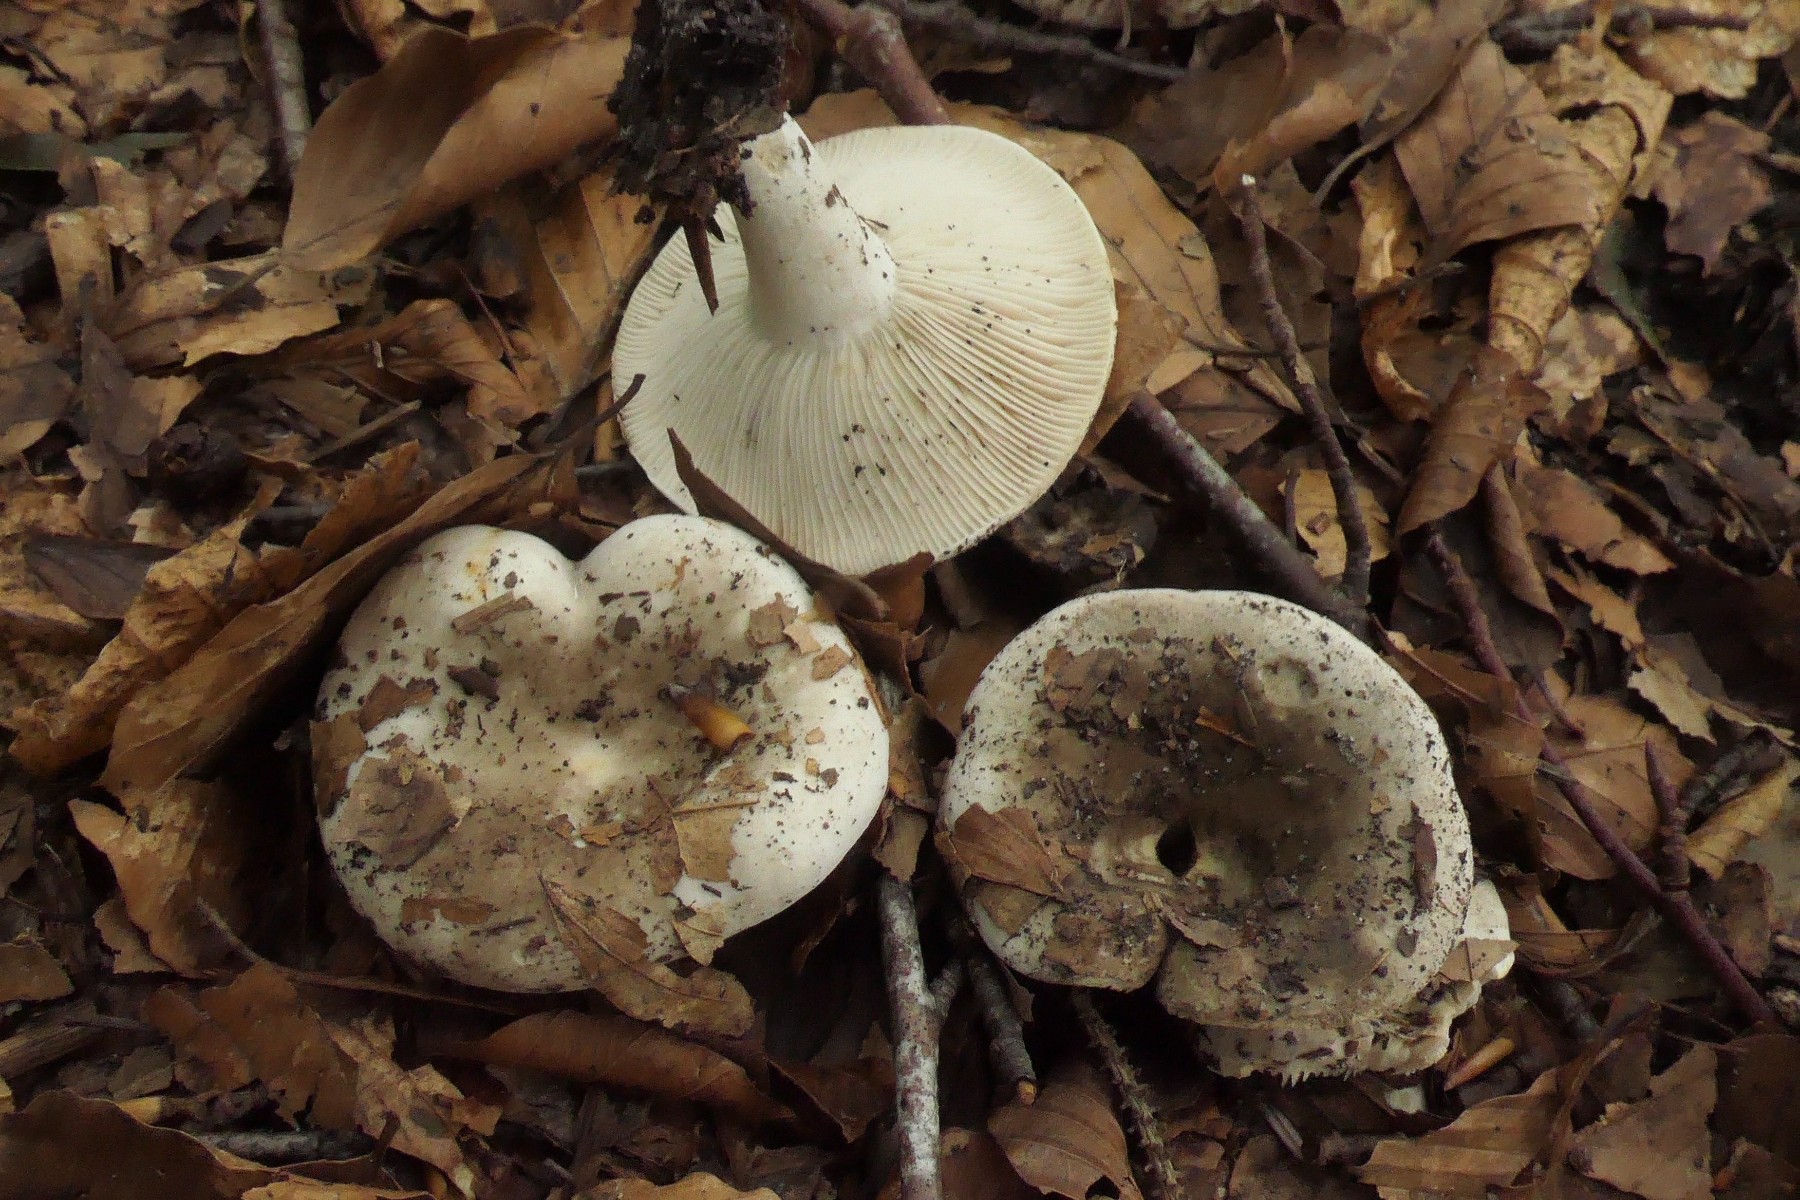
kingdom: Fungi
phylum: Basidiomycota
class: Agaricomycetes
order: Russulales
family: Russulaceae
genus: Russula
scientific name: Russula densifolia
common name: tætbladet skørhat
